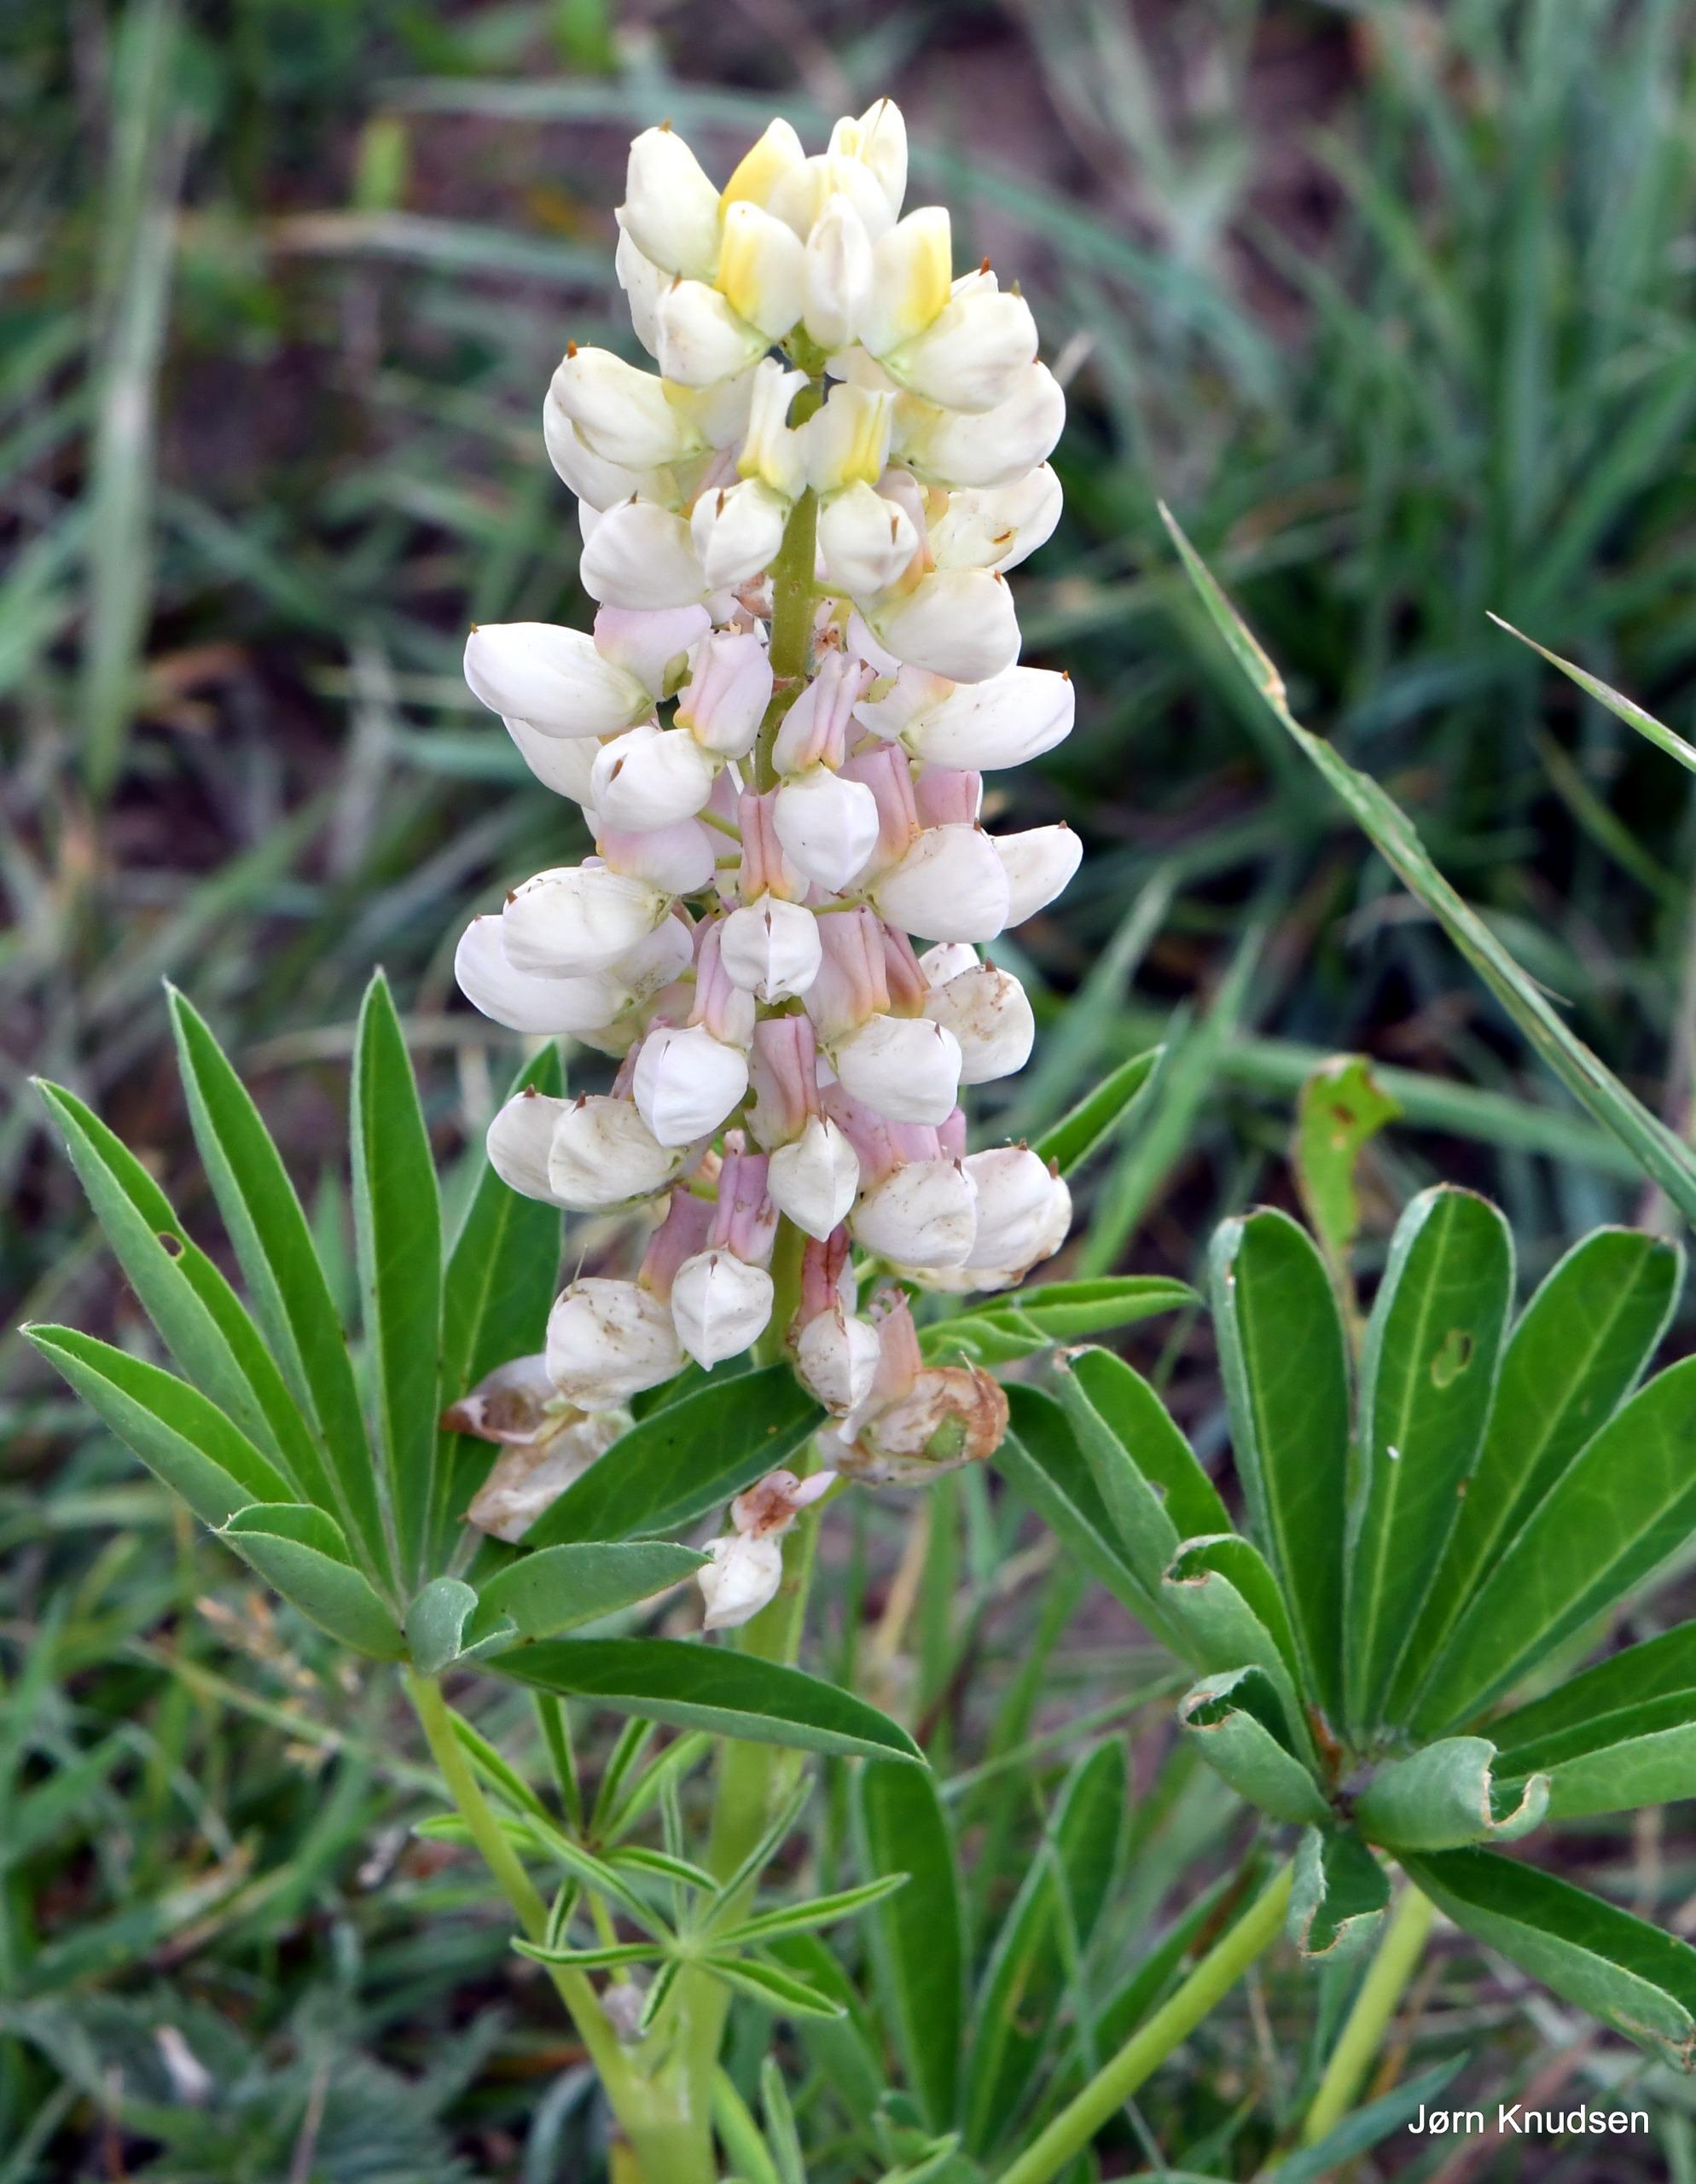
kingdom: Plantae
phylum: Tracheophyta
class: Magnoliopsida
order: Fabales
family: Fabaceae
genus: Lupinus
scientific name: Lupinus polyphyllus
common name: Mangebladet lupin
